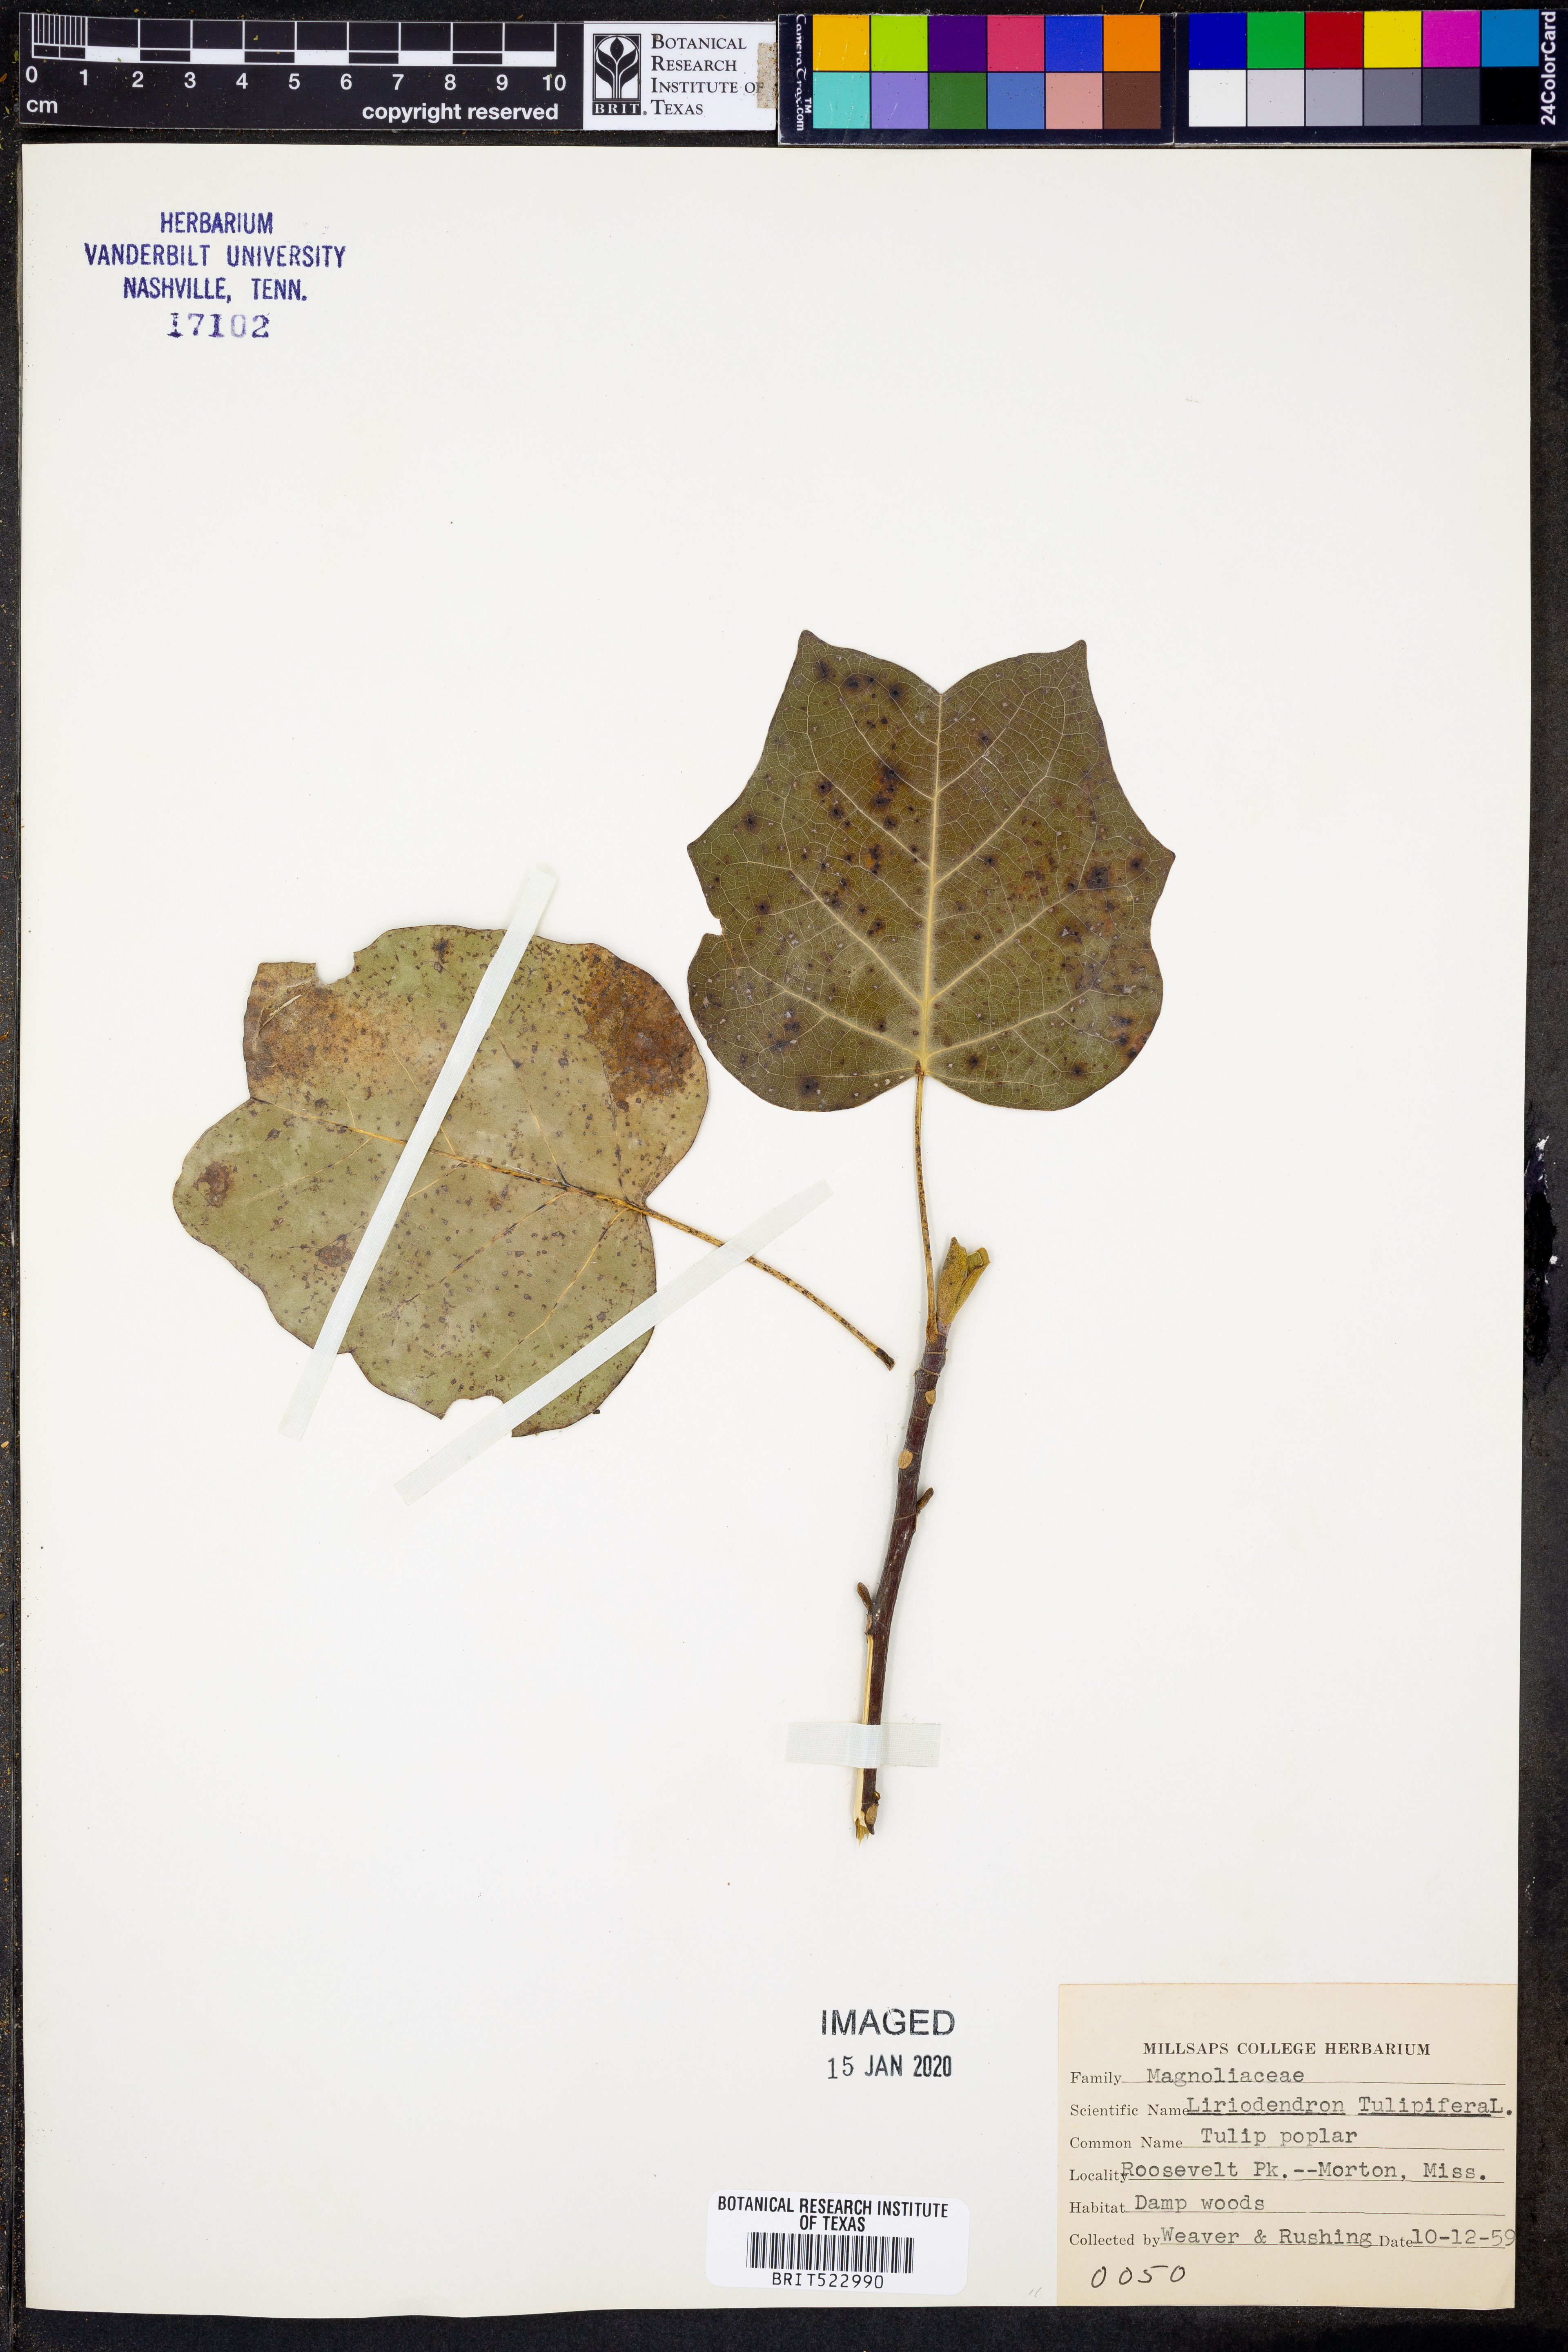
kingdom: Plantae
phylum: Tracheophyta
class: Magnoliopsida
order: Magnoliales
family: Magnoliaceae
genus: Liriodendron
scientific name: Liriodendron tulipifera
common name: Tulip tree
